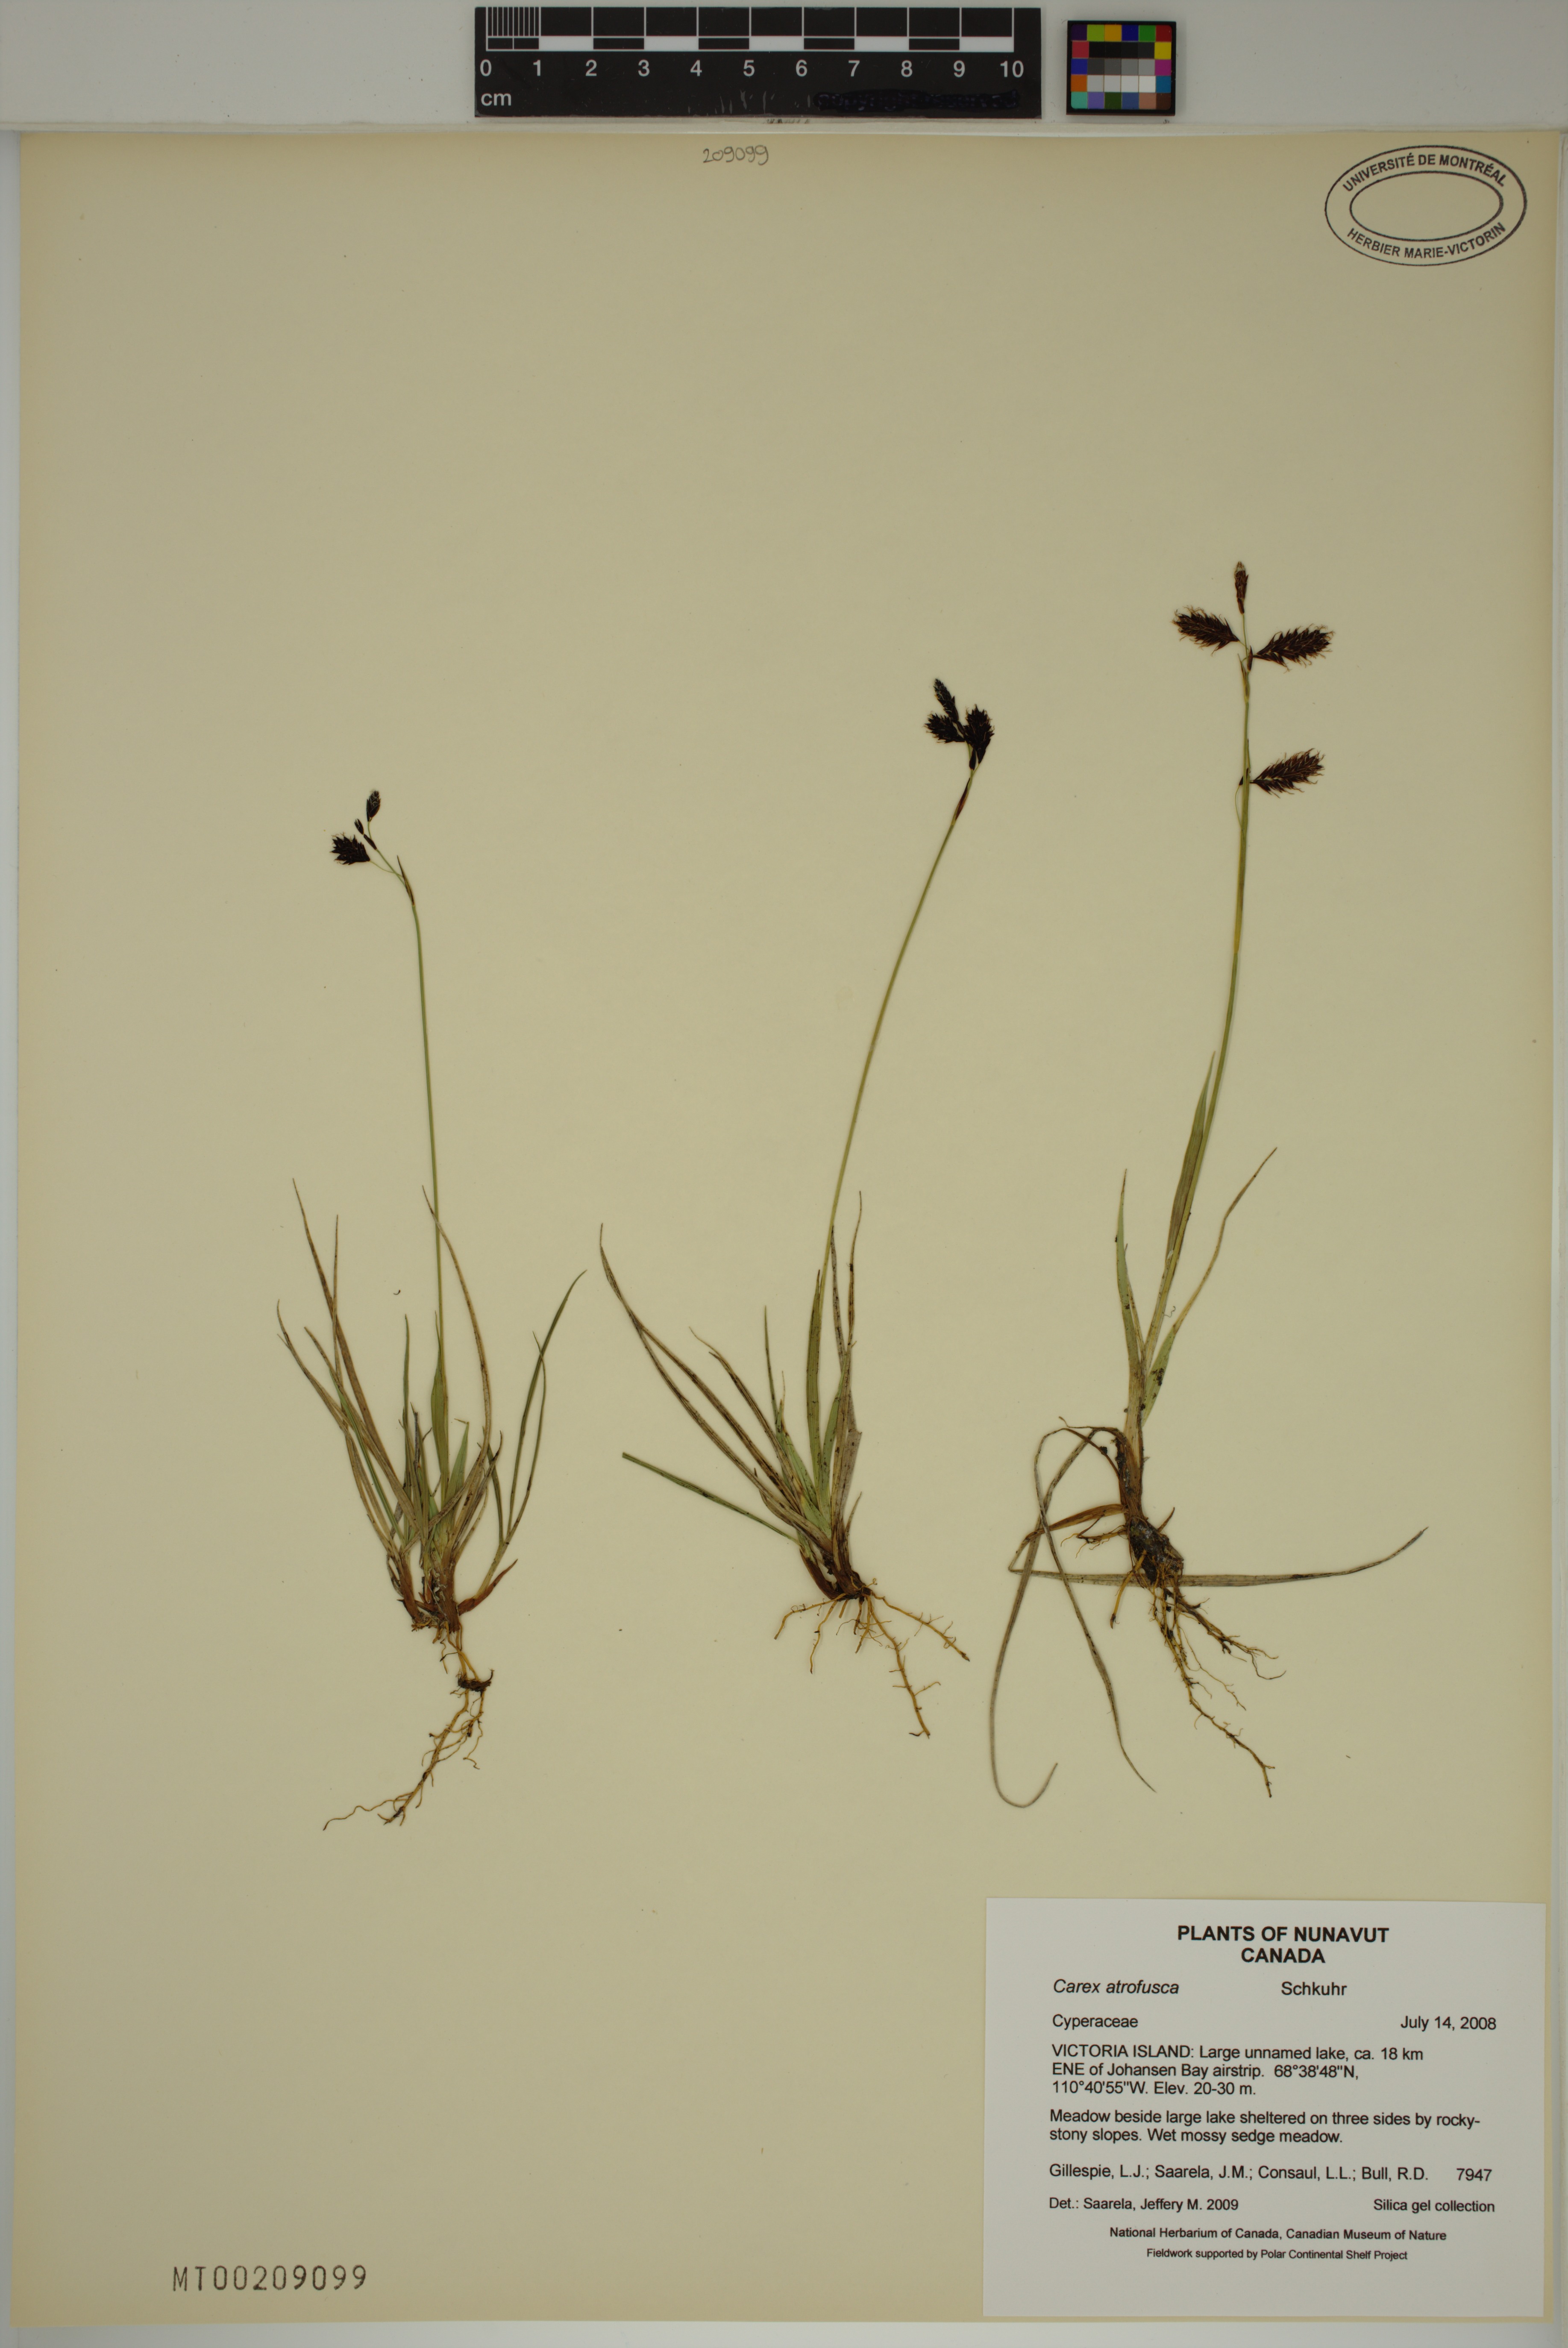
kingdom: Plantae
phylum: Tracheophyta
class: Liliopsida
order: Poales
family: Cyperaceae
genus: Carex
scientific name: Carex atrofusca
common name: Scorched alpine-sedge
